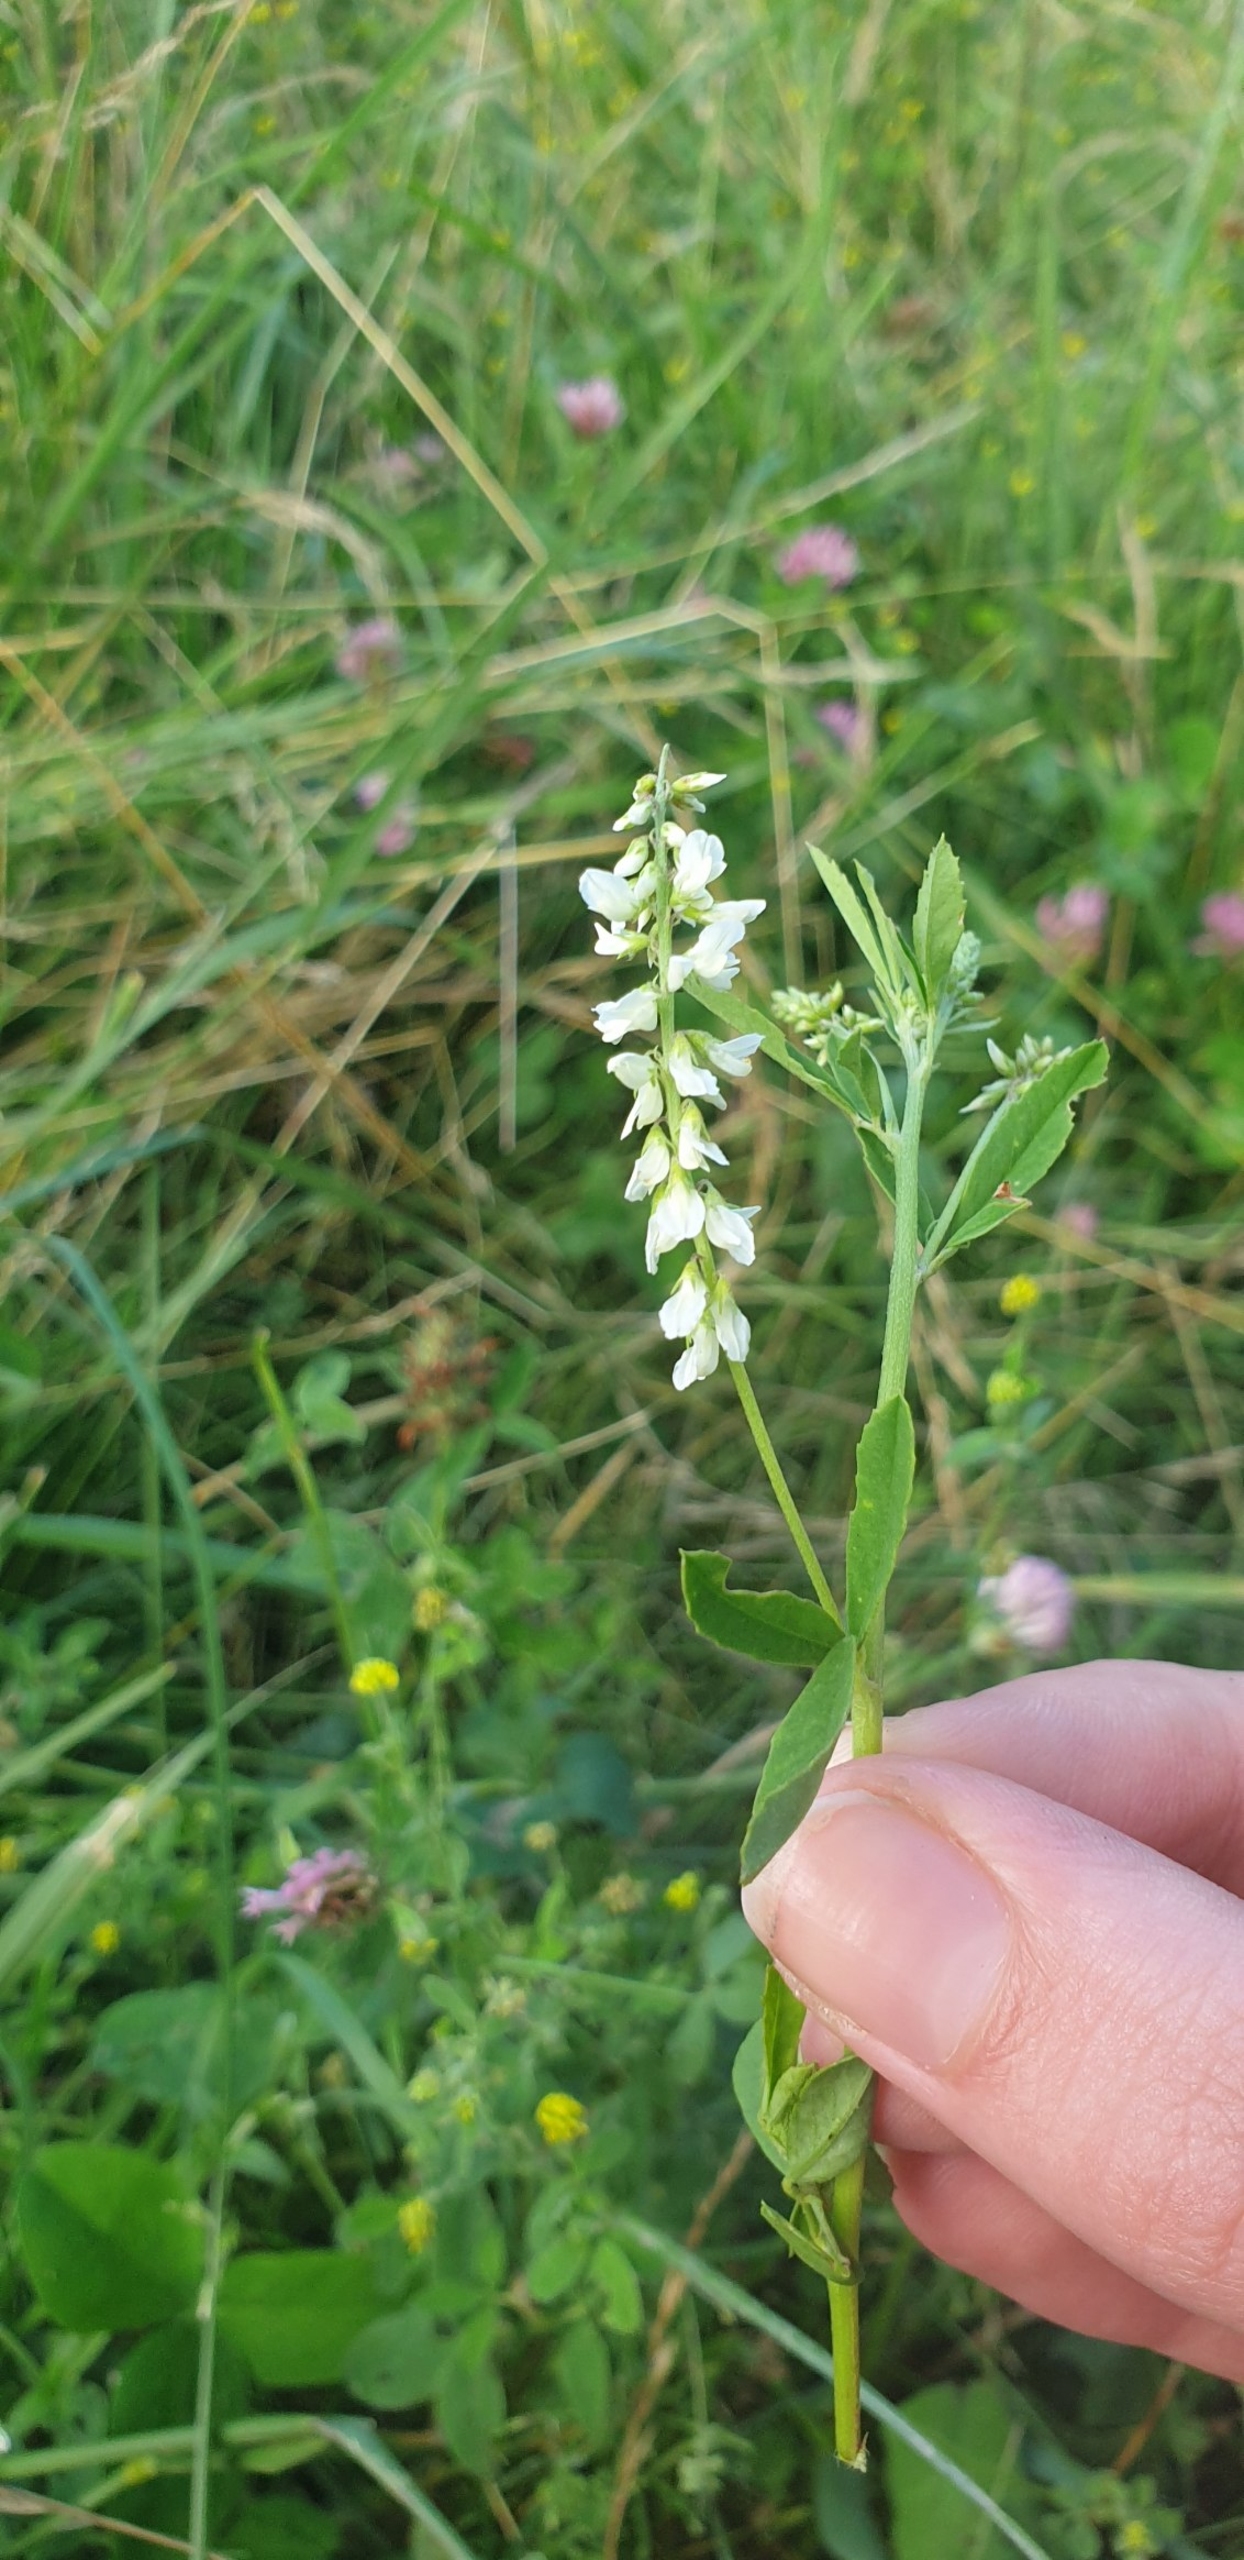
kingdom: Plantae
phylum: Tracheophyta
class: Magnoliopsida
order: Fabales
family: Fabaceae
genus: Melilotus
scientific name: Melilotus albus
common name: Hvid stenkløver
